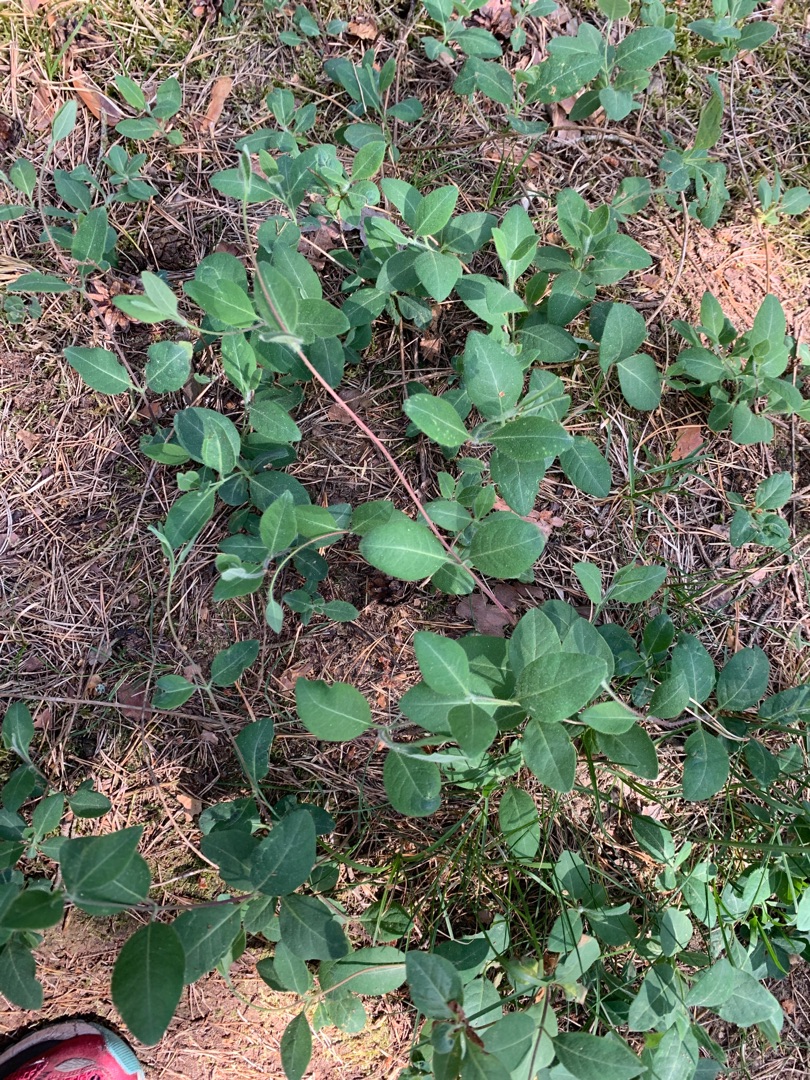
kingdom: Plantae
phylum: Tracheophyta
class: Magnoliopsida
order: Dipsacales
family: Caprifoliaceae
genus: Lonicera
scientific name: Lonicera periclymenum
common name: Almindelig gedeblad
